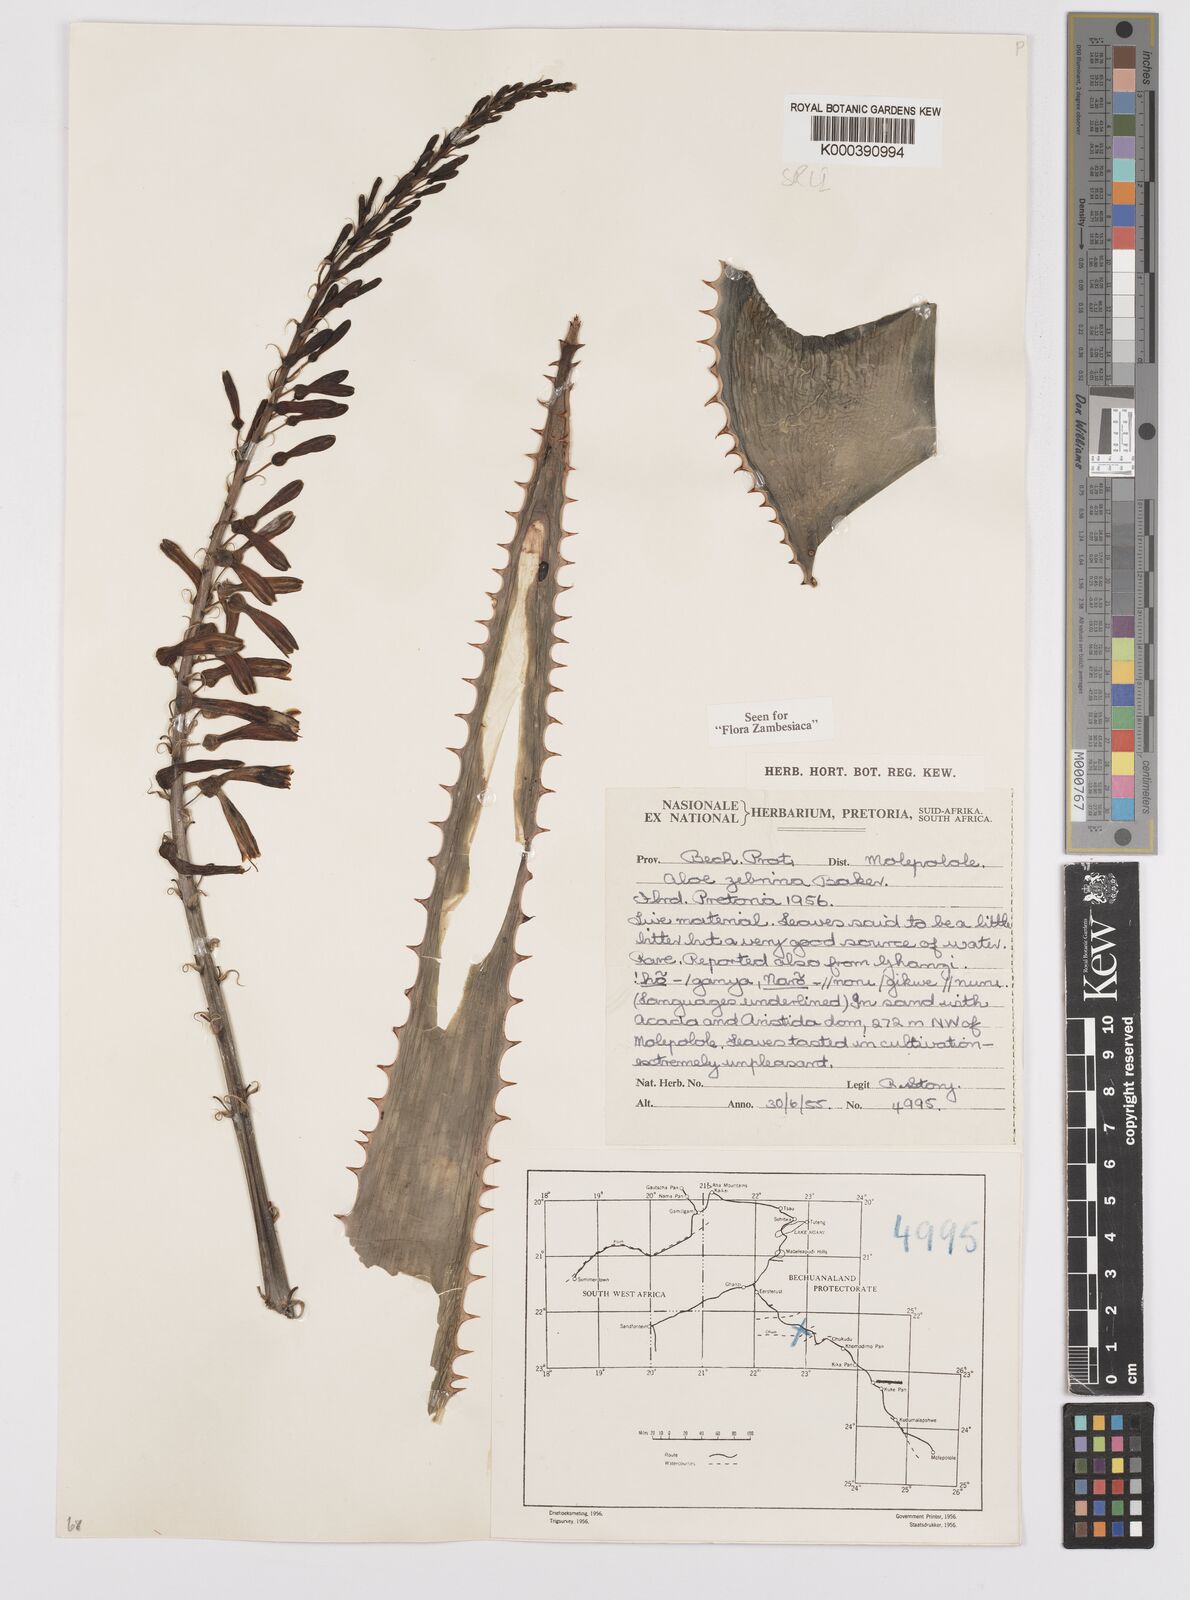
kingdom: Plantae
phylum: Tracheophyta
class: Liliopsida
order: Asparagales
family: Asphodelaceae
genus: Aloe
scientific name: Aloe zebrina
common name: Zebra-leaf aloe
